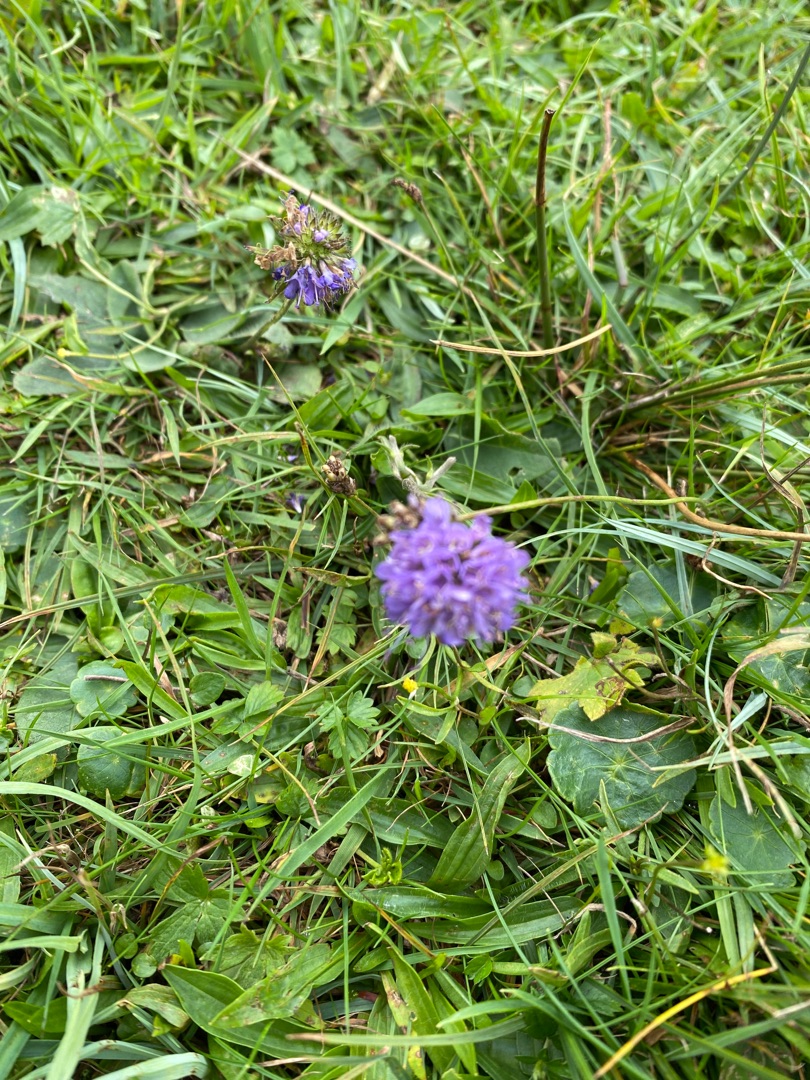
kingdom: Plantae
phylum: Tracheophyta
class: Magnoliopsida
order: Dipsacales
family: Caprifoliaceae
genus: Succisa
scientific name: Succisa pratensis
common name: Djævelsbid
